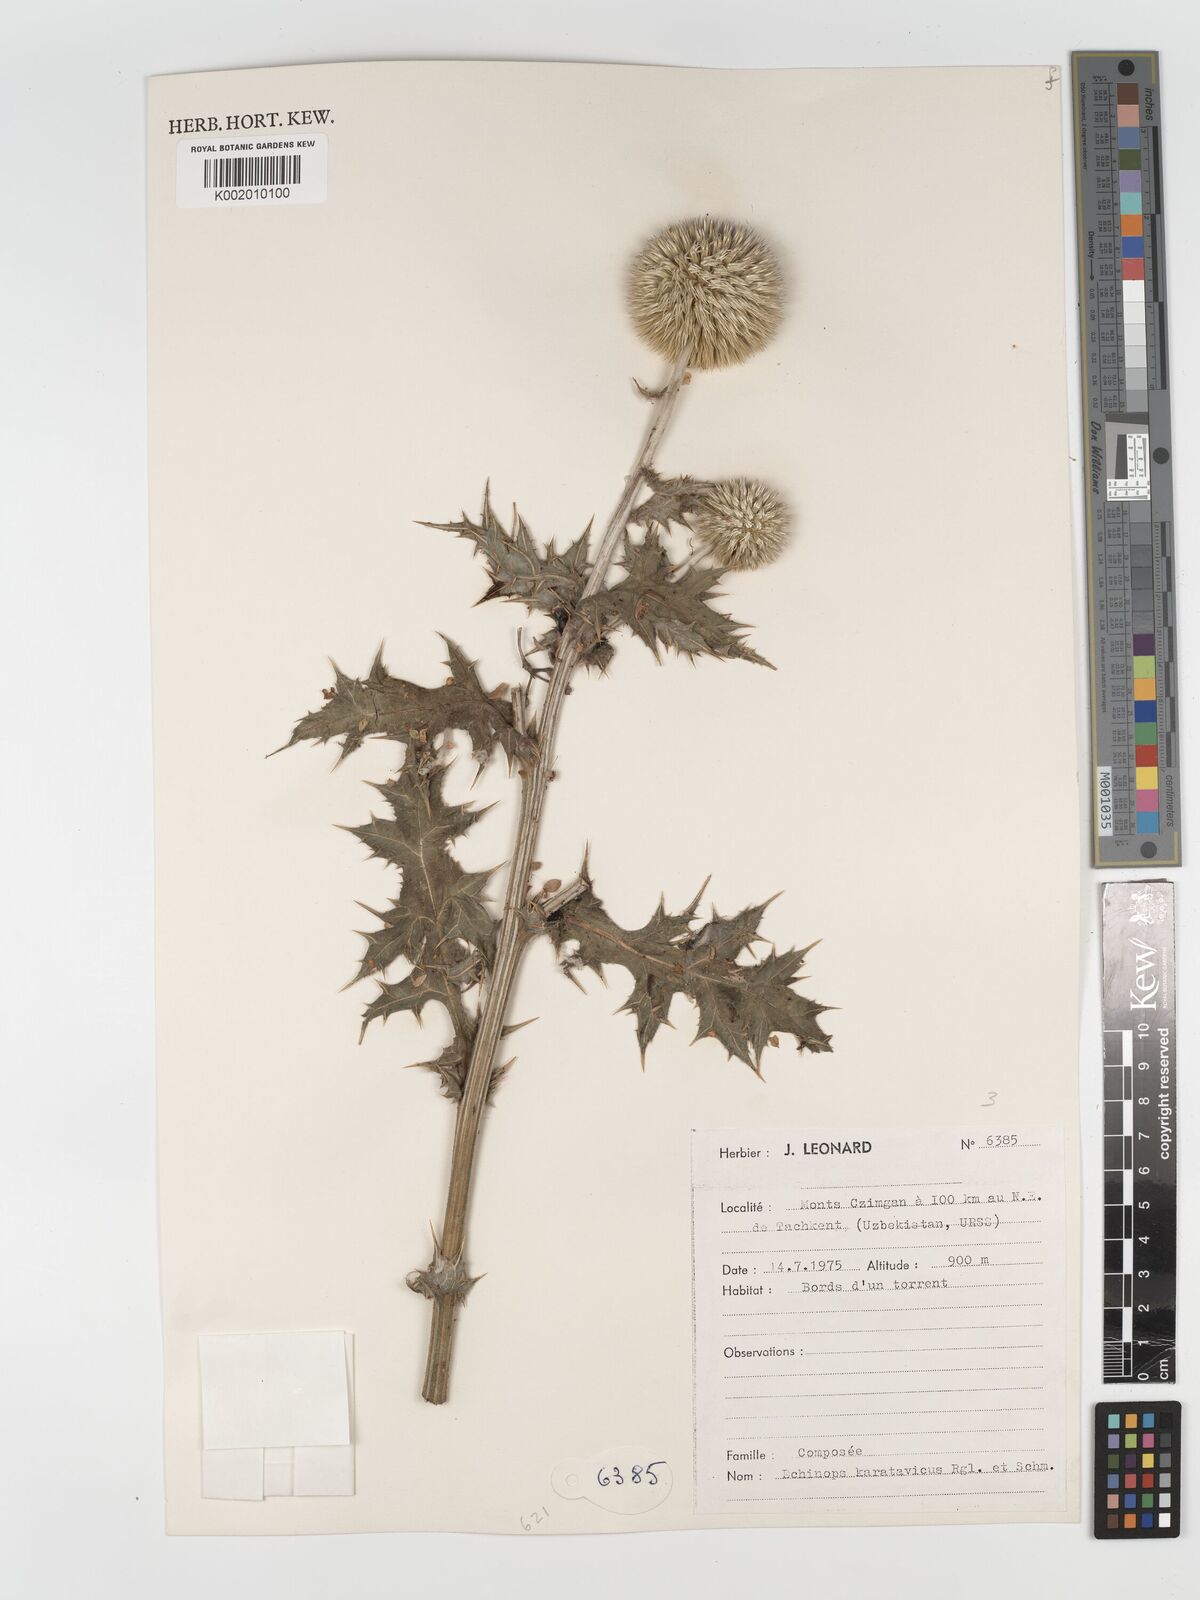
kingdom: Plantae
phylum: Tracheophyta
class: Magnoliopsida
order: Asterales
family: Asteraceae
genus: Echinops
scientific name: Echinops karatavicus
